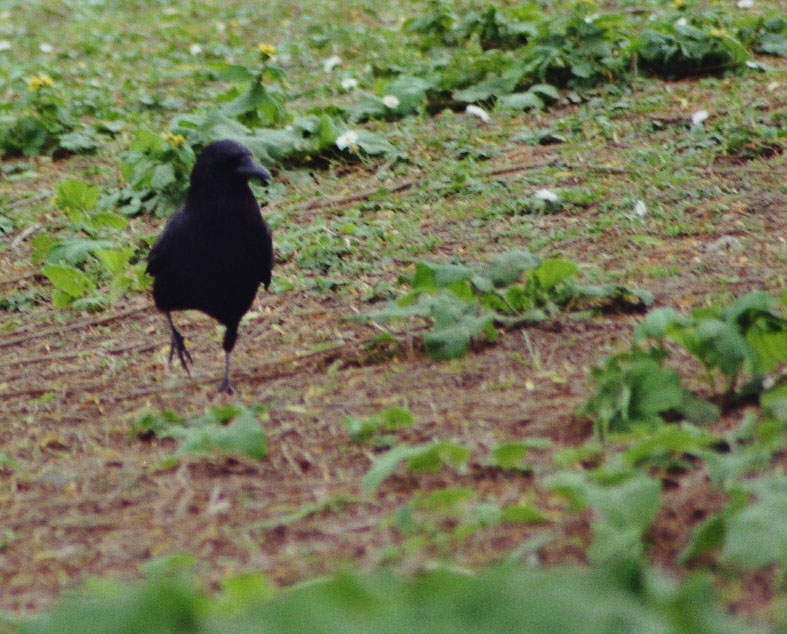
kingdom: Animalia
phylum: Chordata
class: Aves
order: Passeriformes
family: Corvidae
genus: Corvus
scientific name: Corvus caurinus
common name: Northwestern crow
